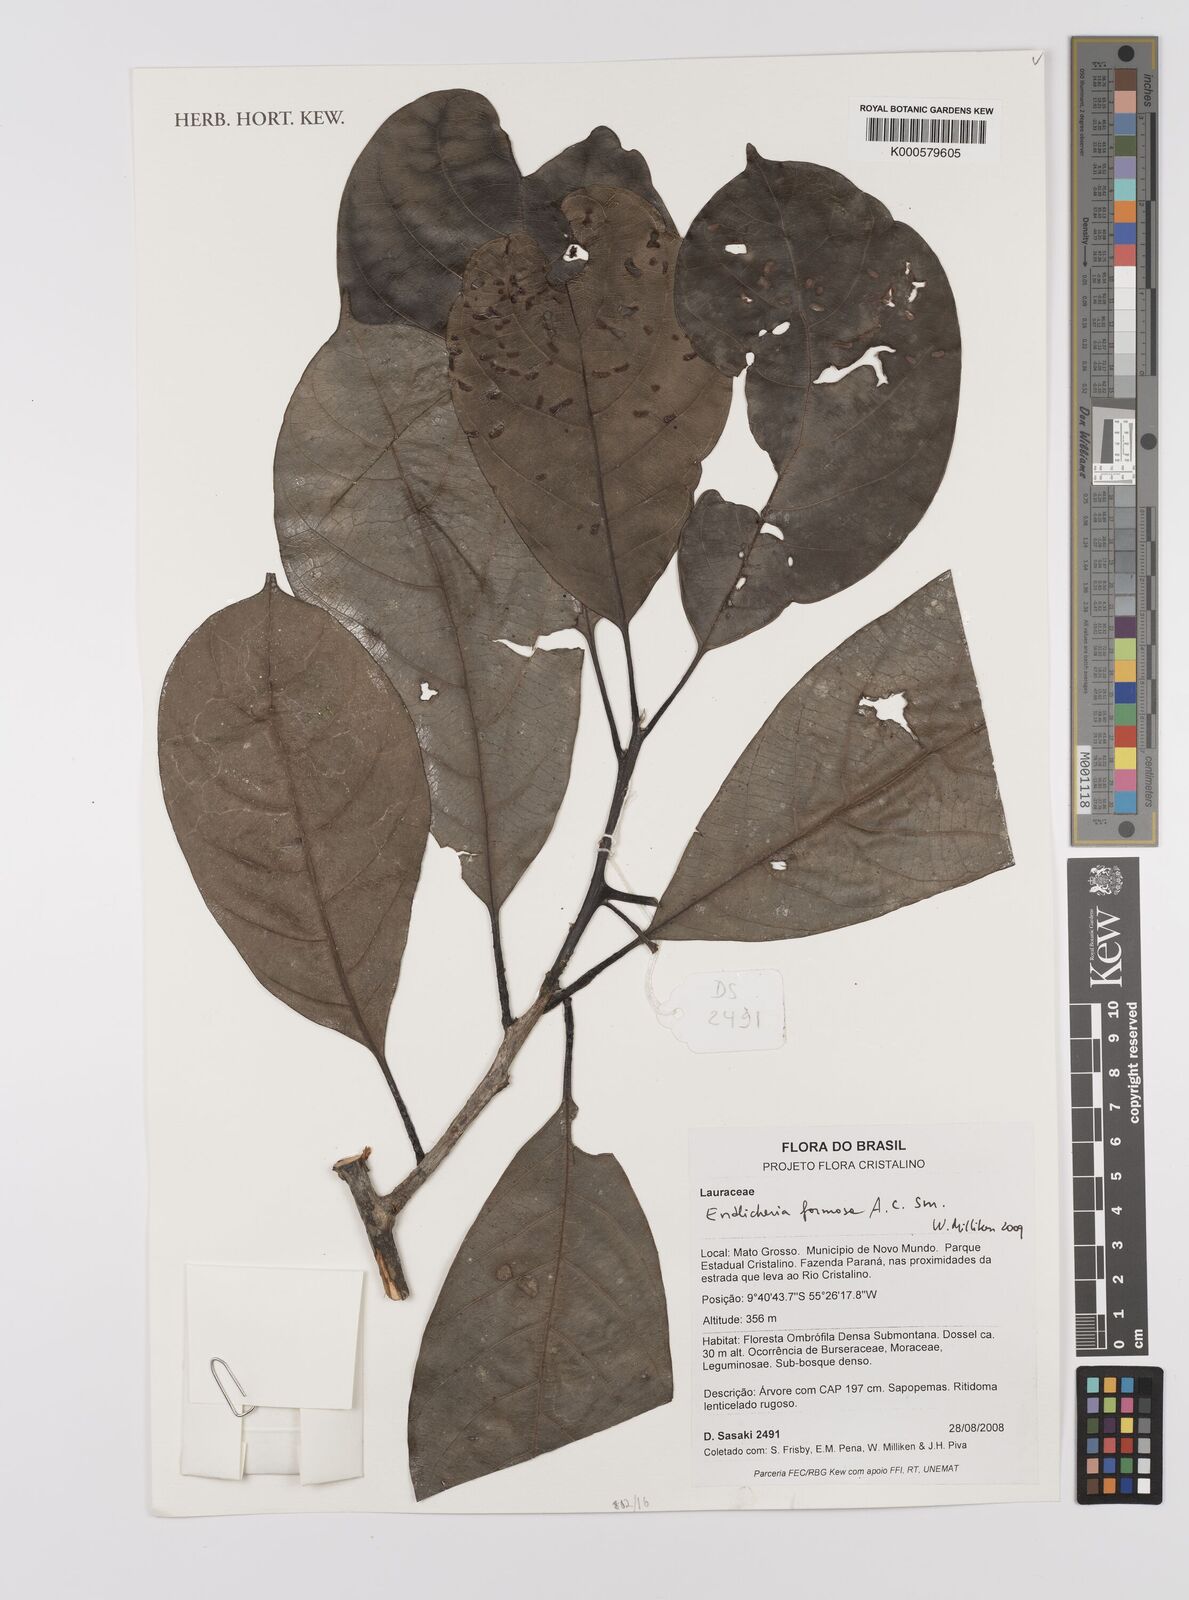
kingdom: Plantae
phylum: Tracheophyta
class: Magnoliopsida
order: Laurales
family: Lauraceae
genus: Endlicheria
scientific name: Endlicheria formosa
